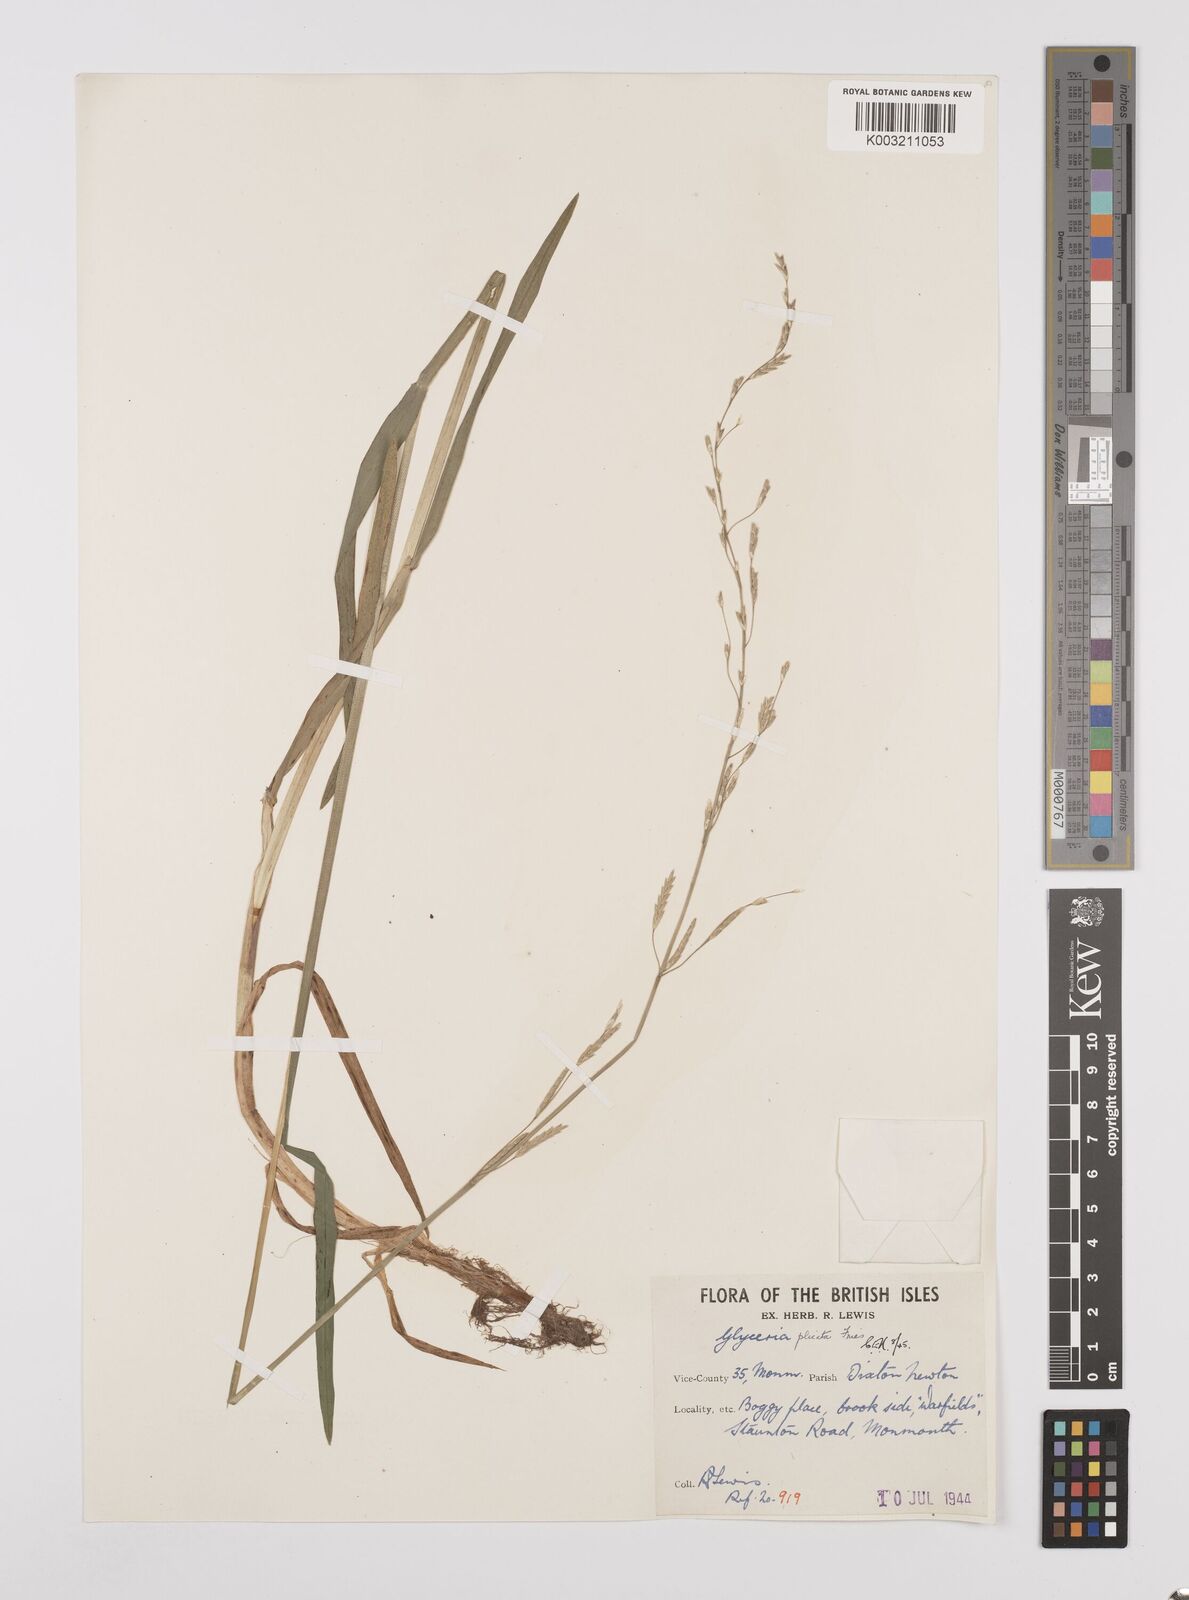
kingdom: Plantae
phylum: Tracheophyta
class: Liliopsida
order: Poales
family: Poaceae
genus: Glyceria
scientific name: Glyceria notata
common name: Plicate sweet-grass
